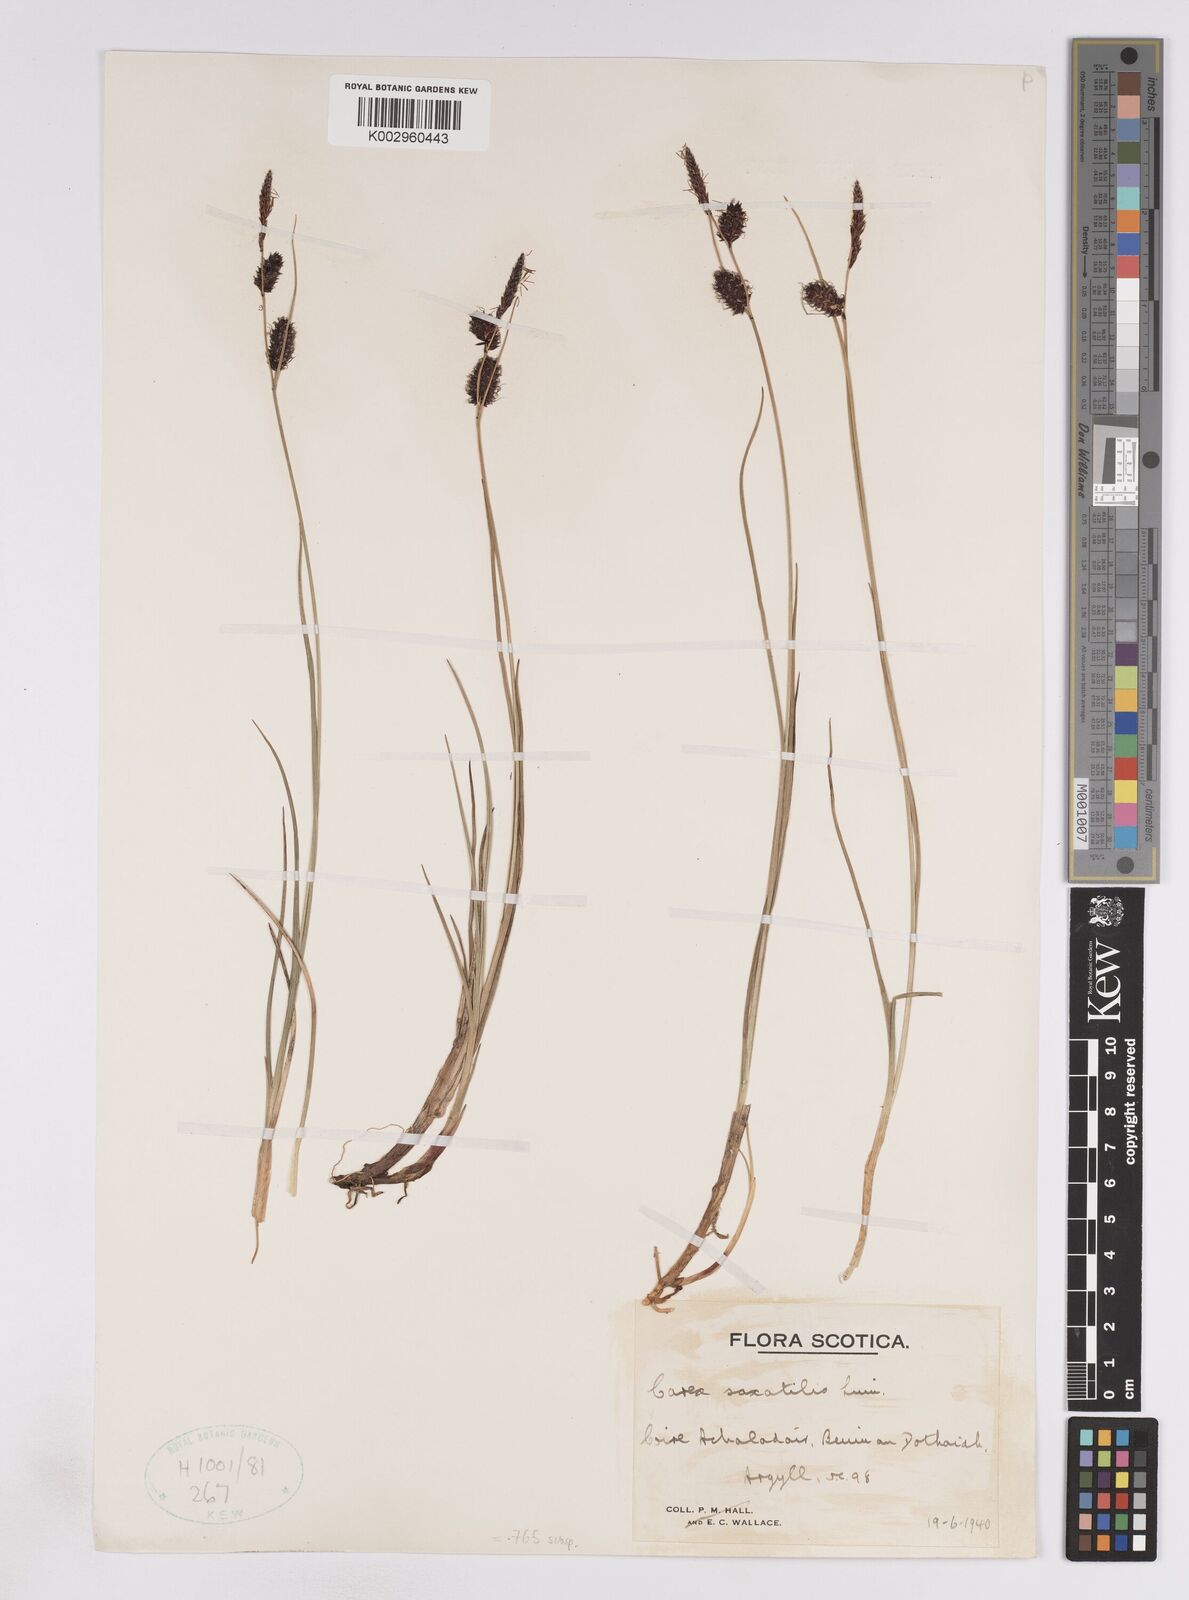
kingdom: Plantae
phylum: Tracheophyta
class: Liliopsida
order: Poales
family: Cyperaceae
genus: Carex
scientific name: Carex saxatilis
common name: Russet sedge
